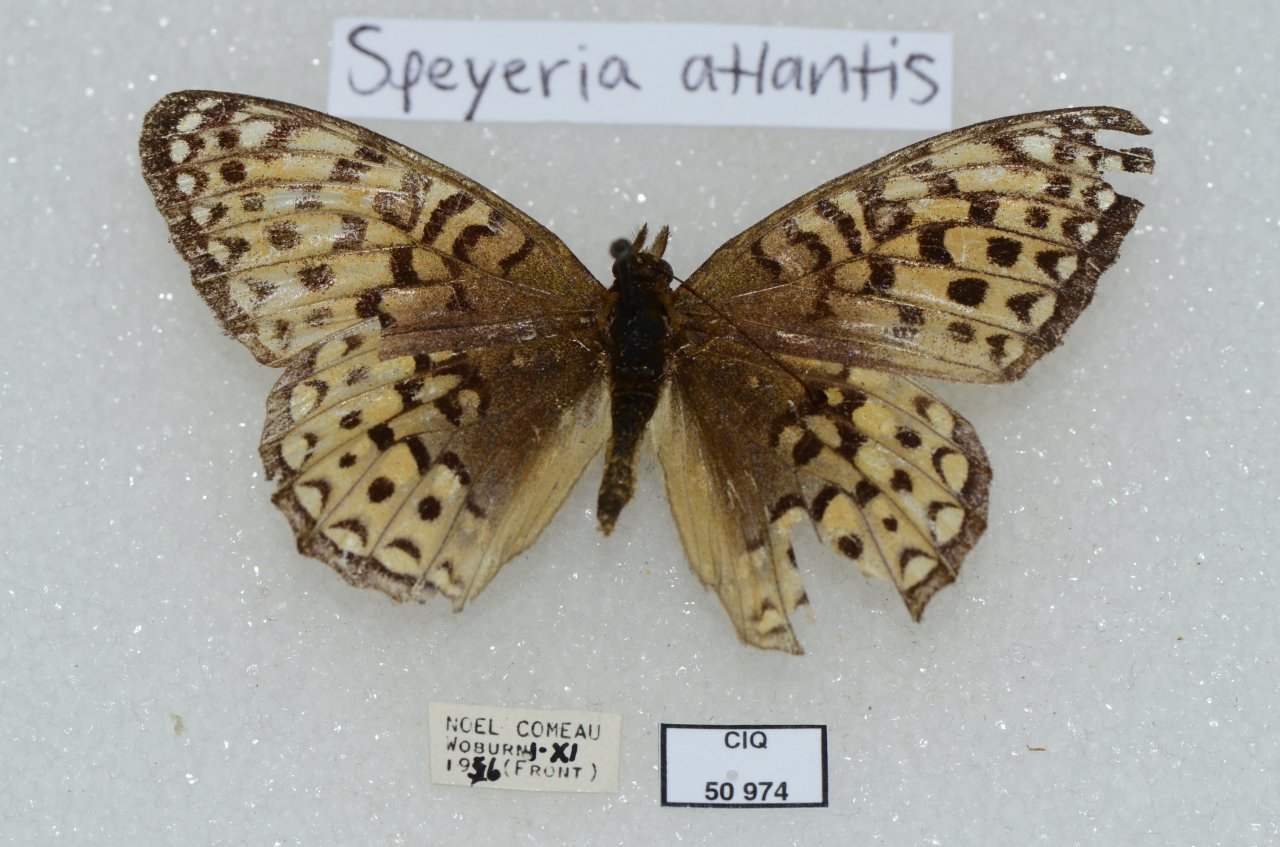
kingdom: Animalia
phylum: Arthropoda
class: Insecta
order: Lepidoptera
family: Nymphalidae
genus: Speyeria
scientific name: Speyeria atlantis
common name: Atlantis Fritillary
